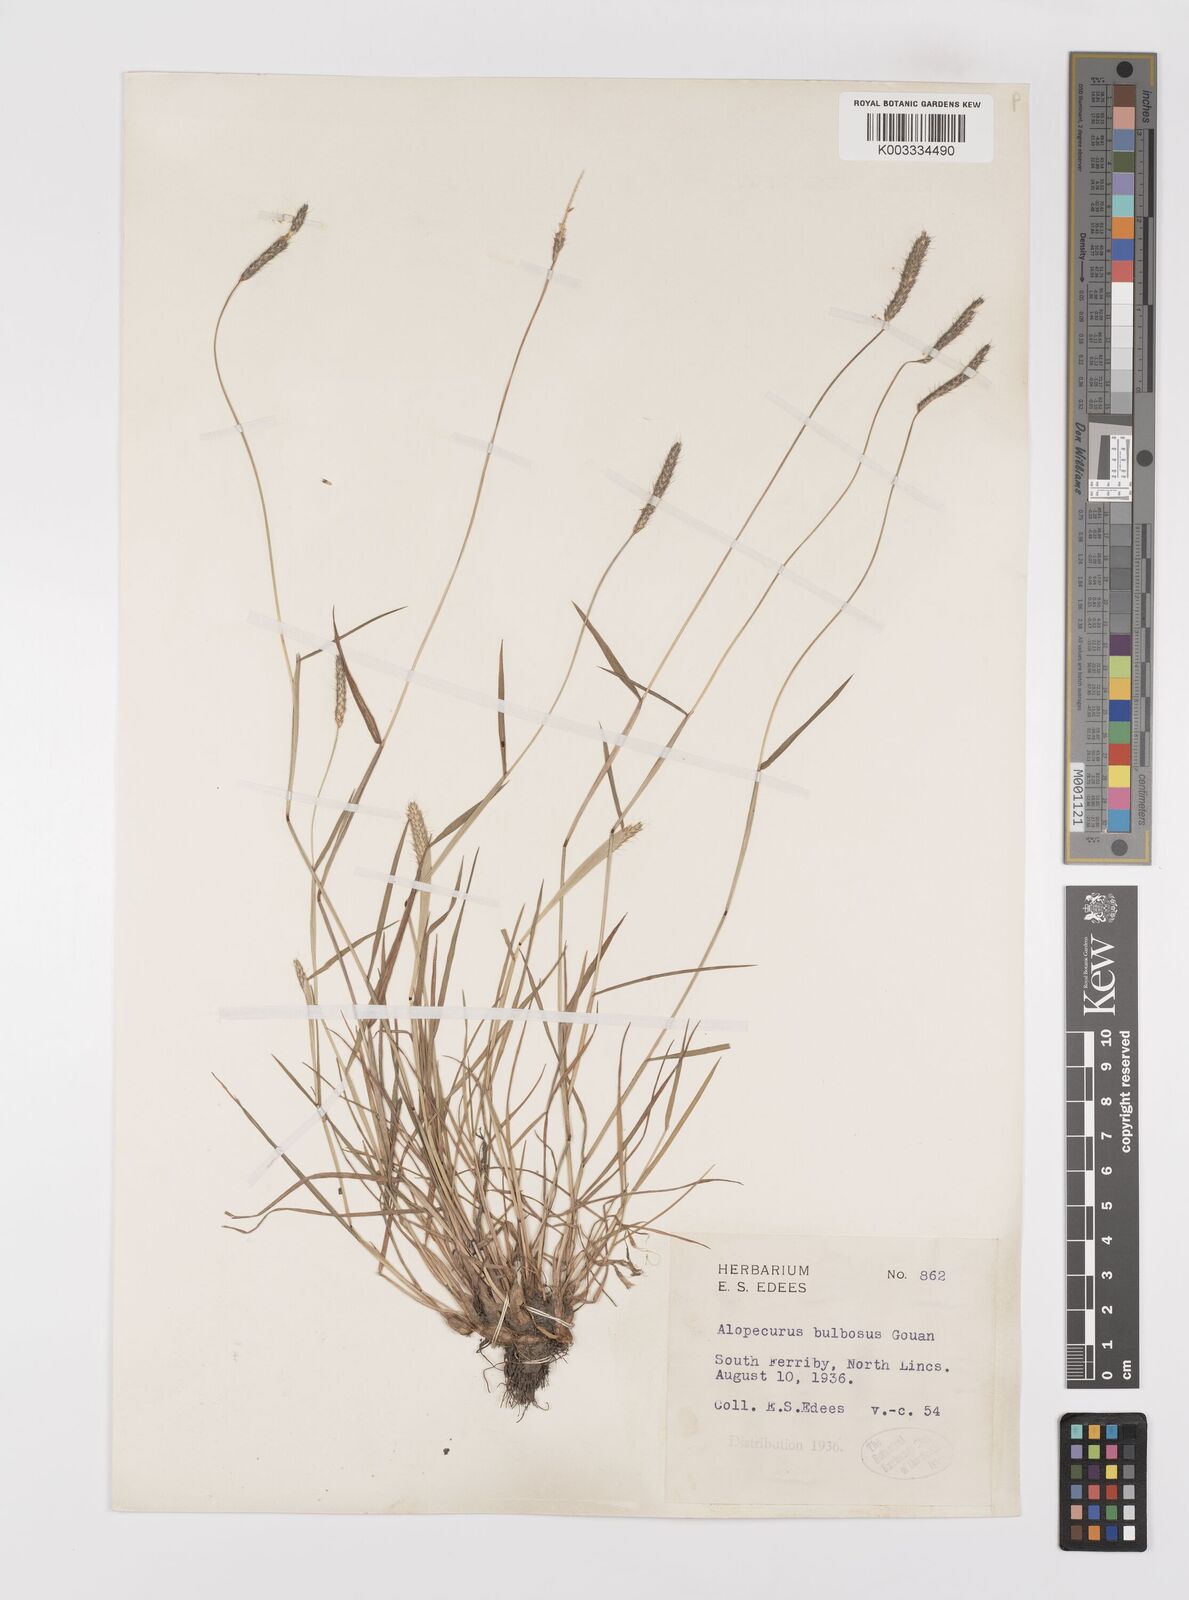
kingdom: Plantae
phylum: Tracheophyta
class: Liliopsida
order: Poales
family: Poaceae
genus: Alopecurus
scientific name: Alopecurus bulbosus
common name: Bulbous foxtail
